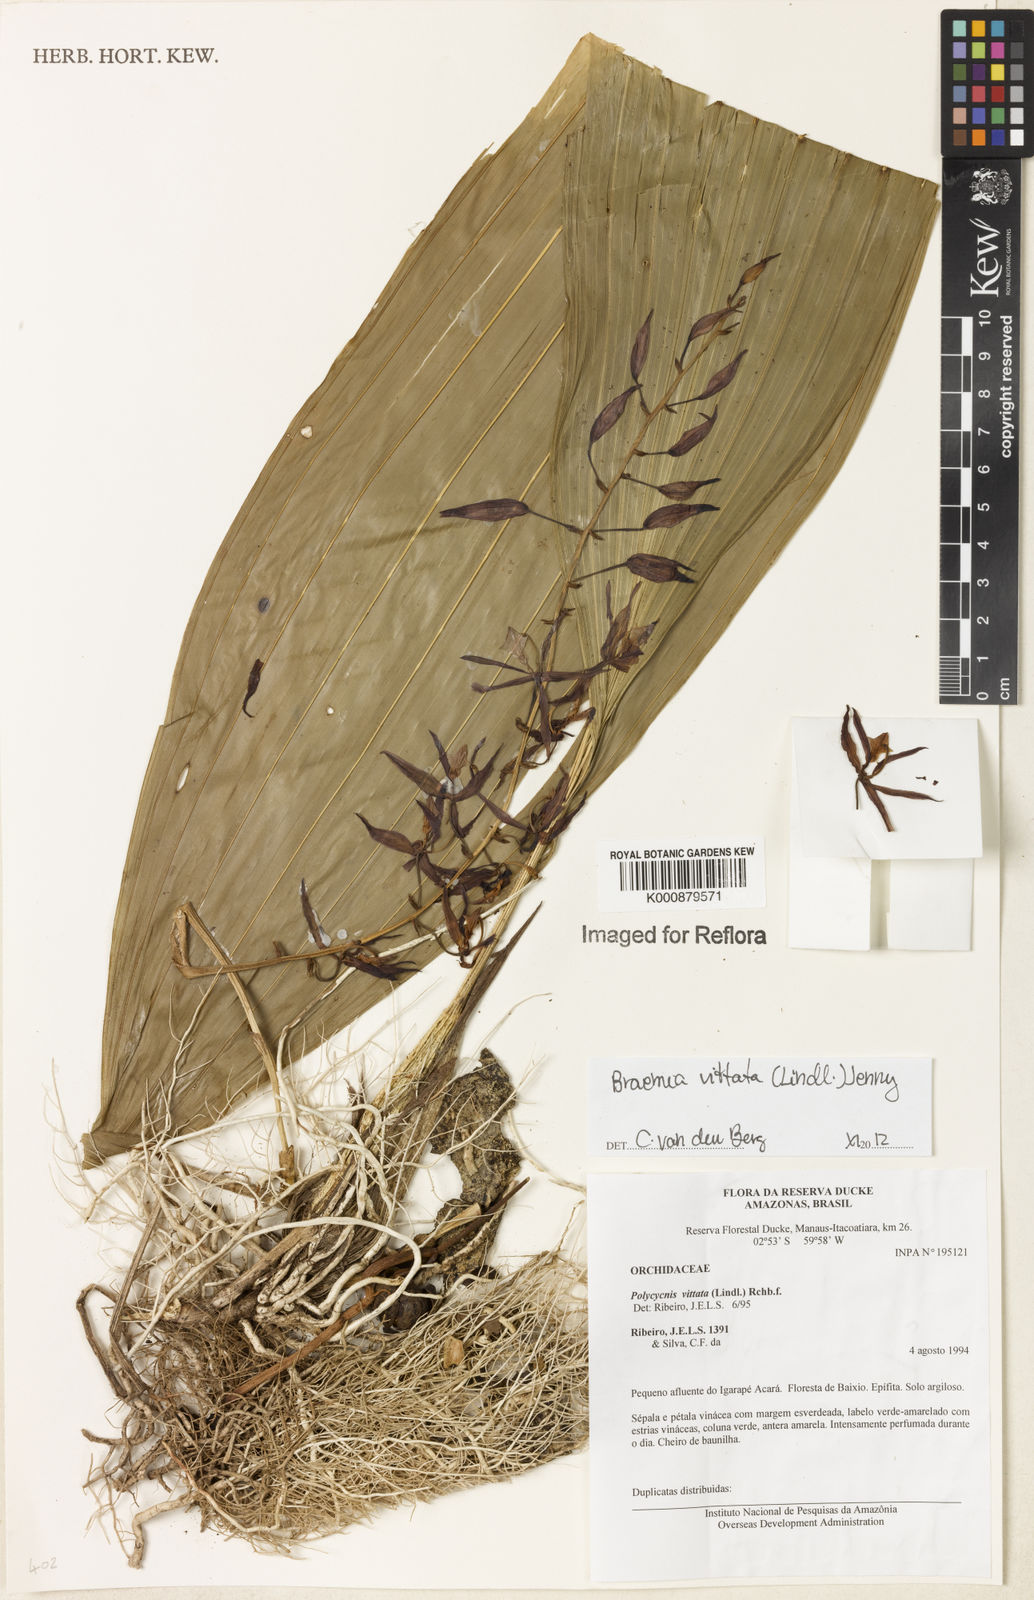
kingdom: Plantae
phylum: Tracheophyta
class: Liliopsida
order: Asparagales
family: Orchidaceae
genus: Braemia
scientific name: Braemia vittata
